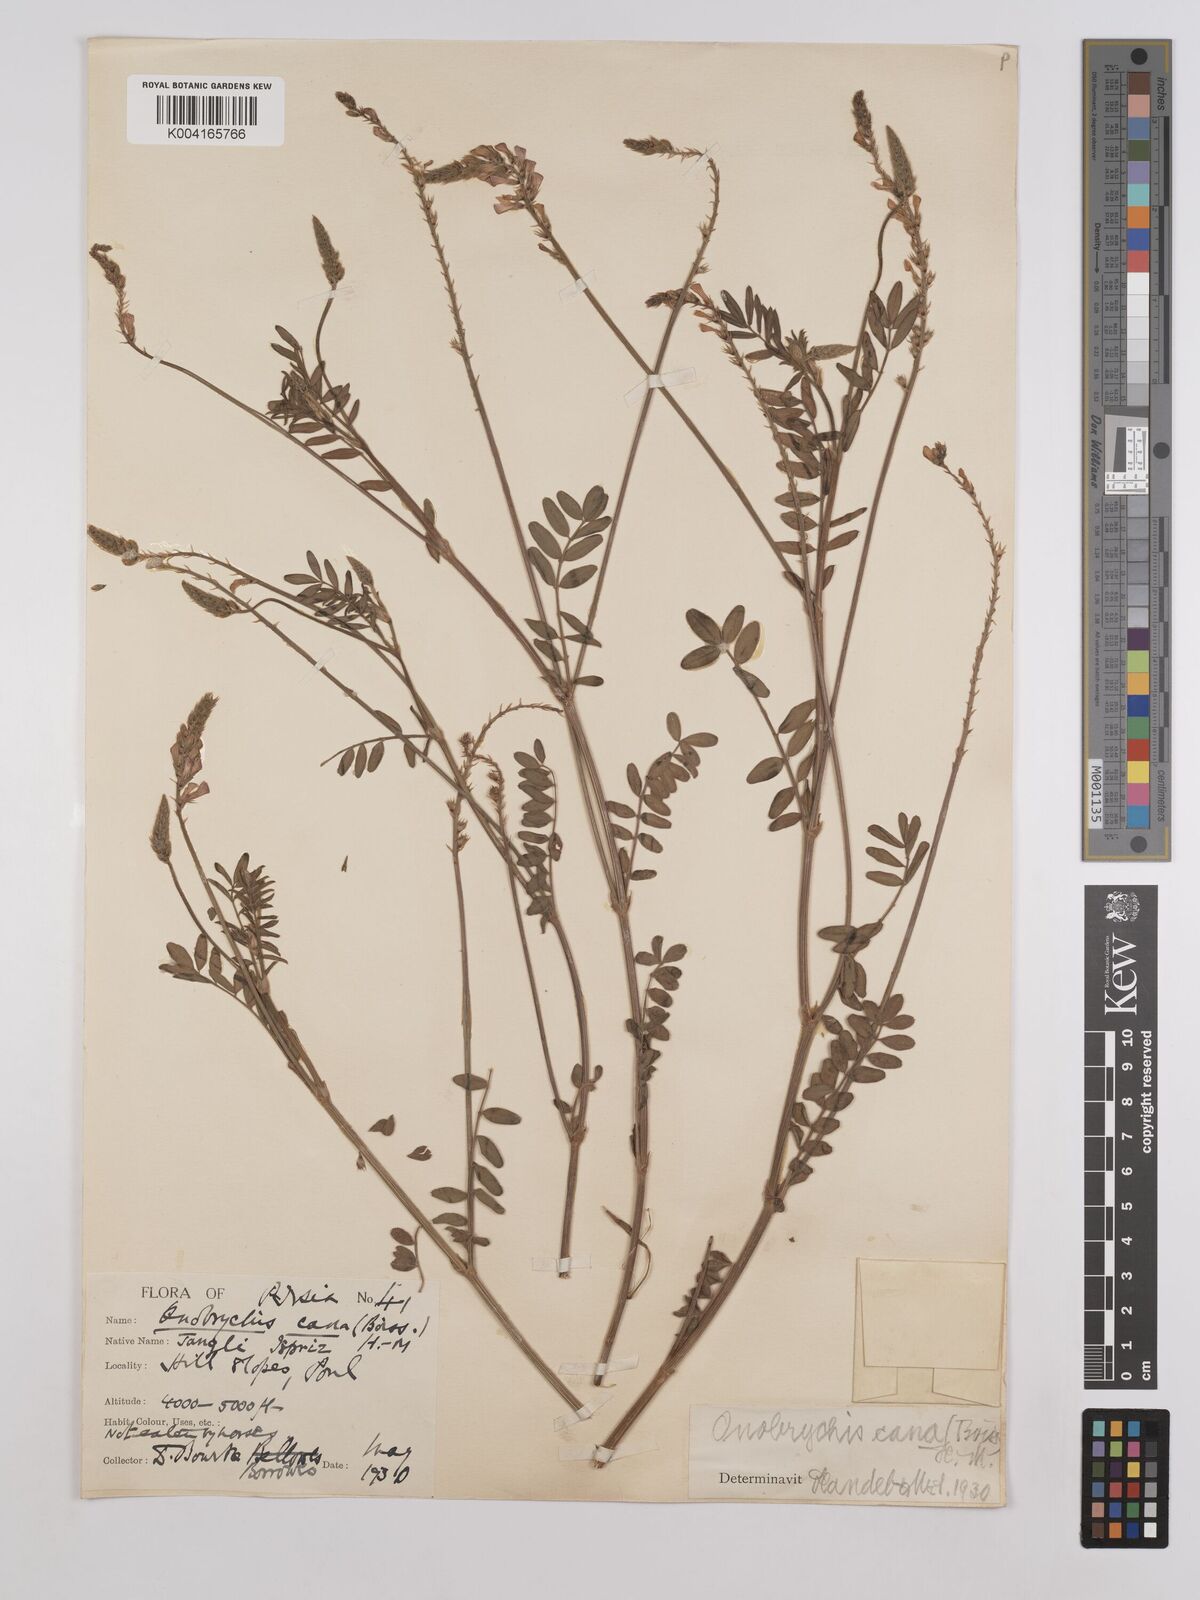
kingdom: Plantae
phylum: Tracheophyta
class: Magnoliopsida
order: Fabales
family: Fabaceae
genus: Onobrychis
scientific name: Onobrychis arenaria
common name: Sand esparcet
